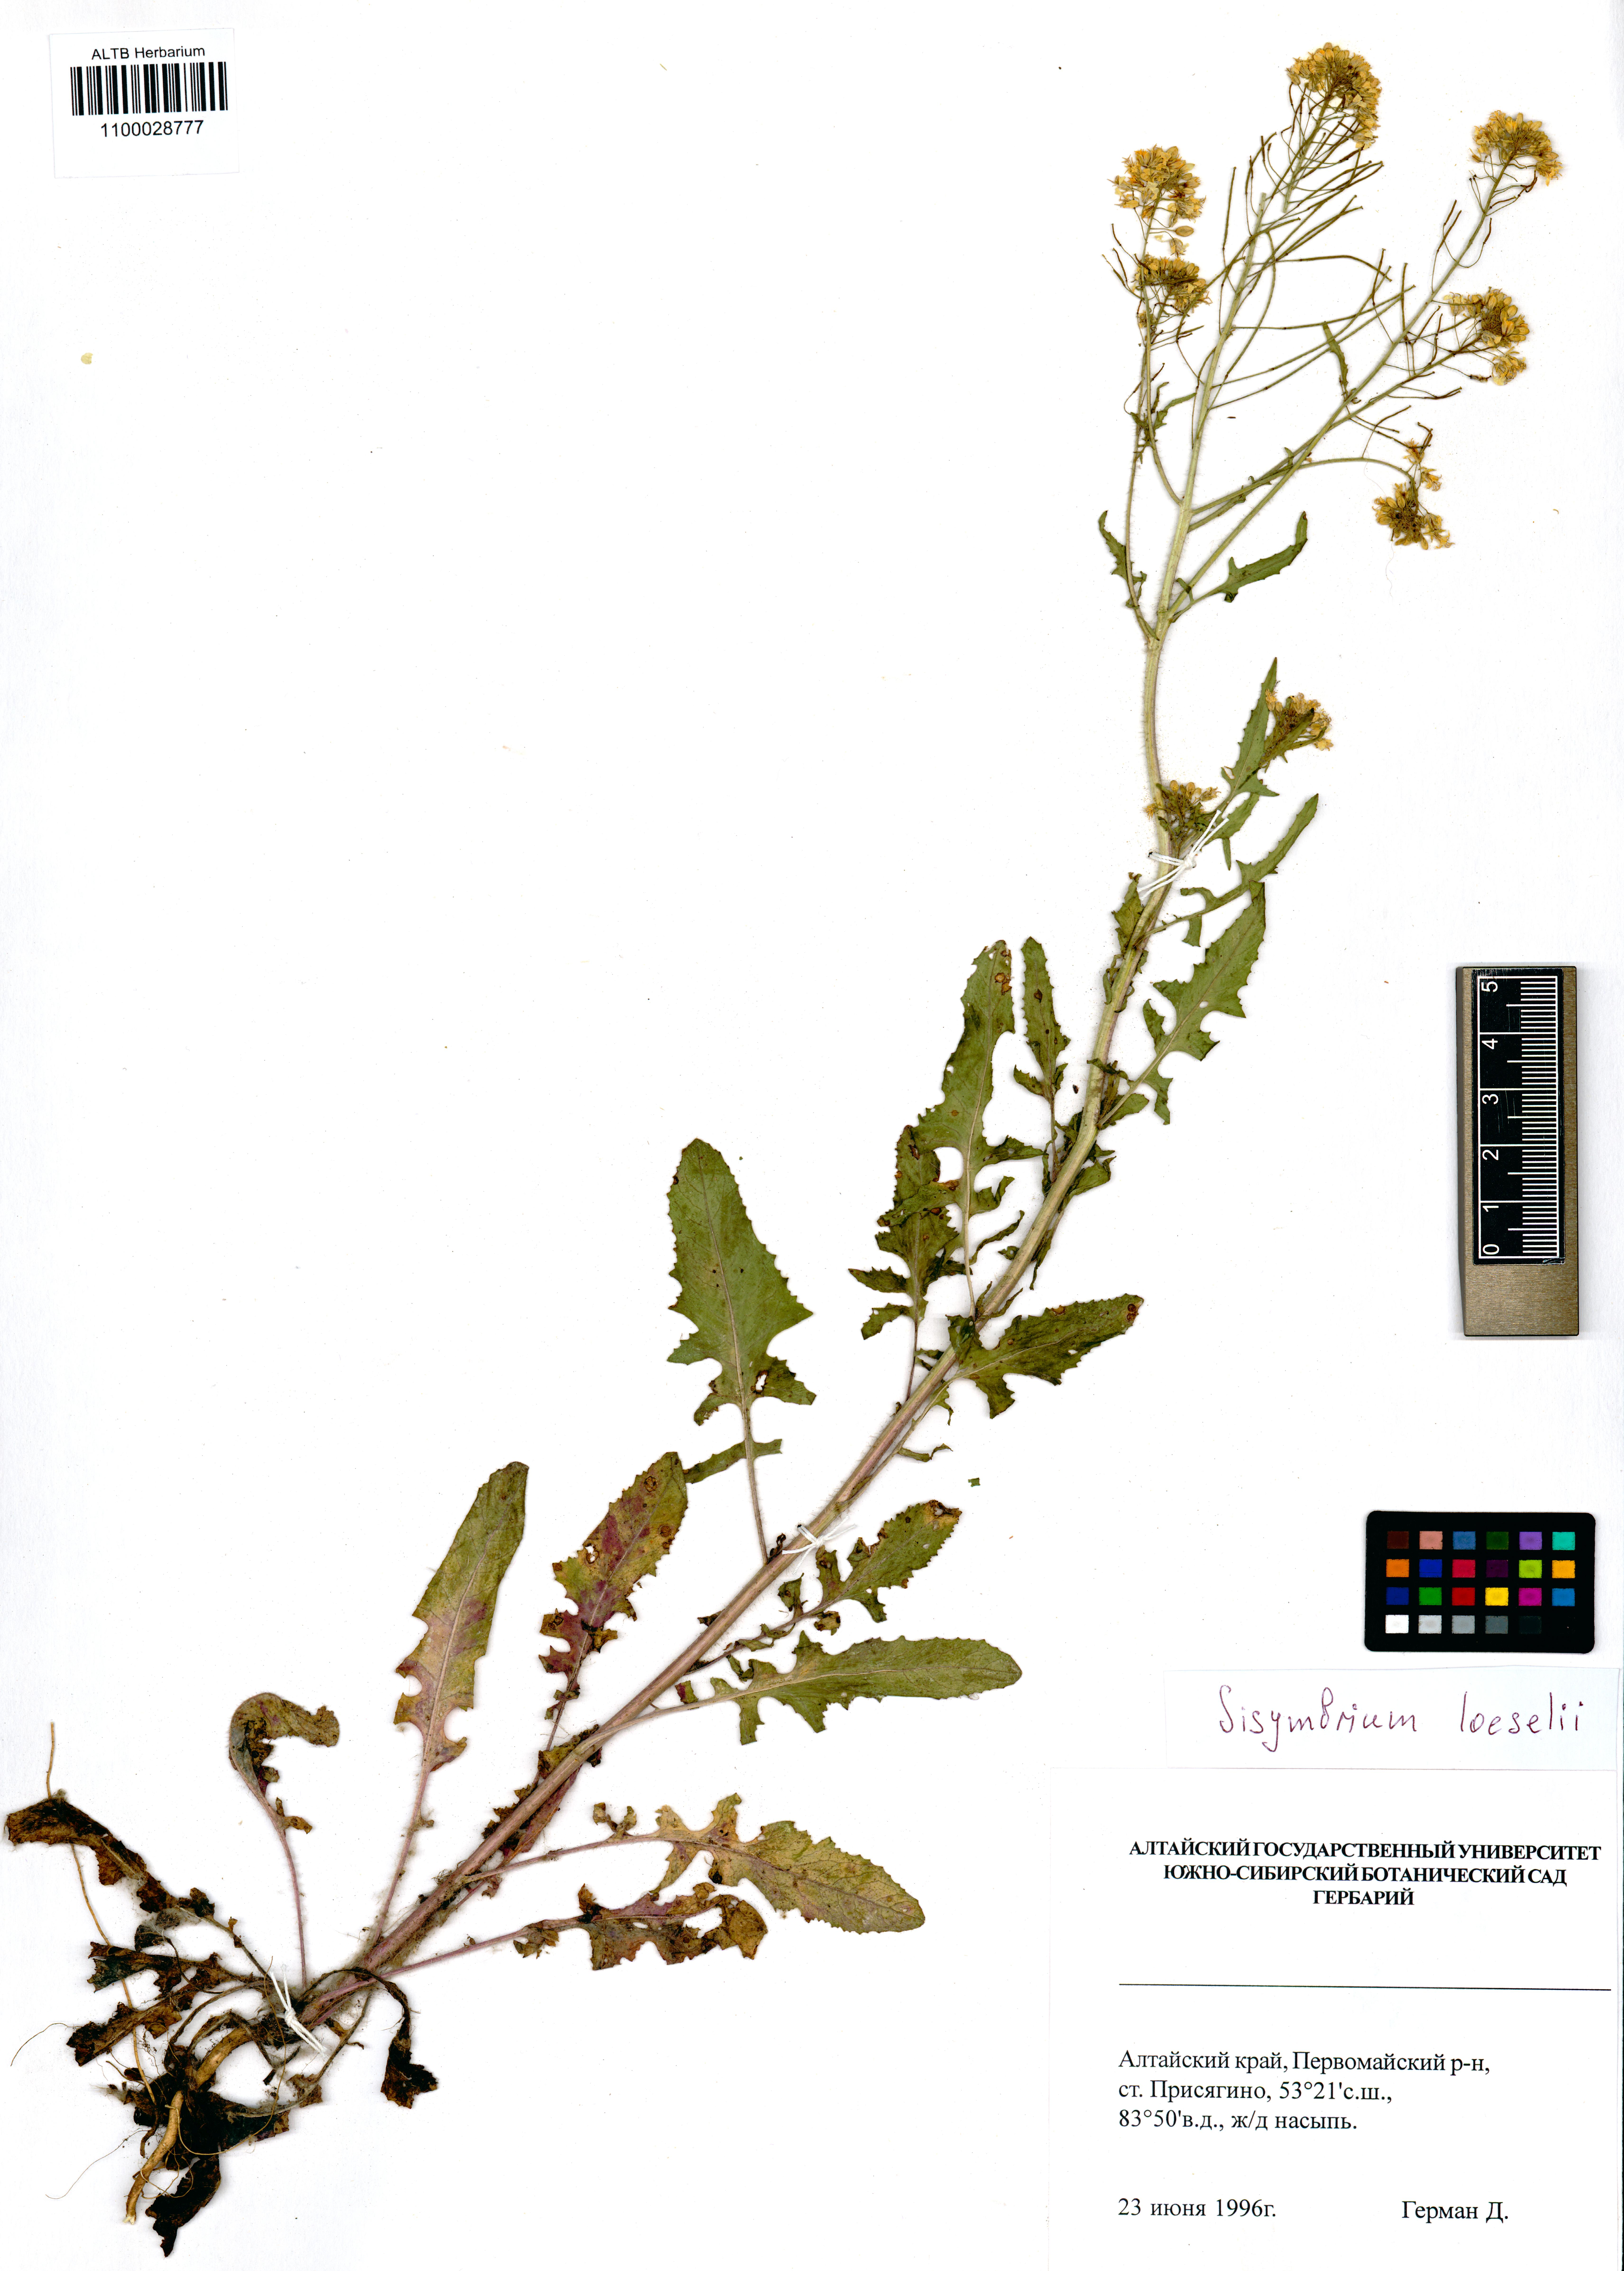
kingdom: Plantae
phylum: Tracheophyta
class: Magnoliopsida
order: Brassicales
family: Brassicaceae
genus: Sisymbrium
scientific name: Sisymbrium loeselii
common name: False london-rocket
